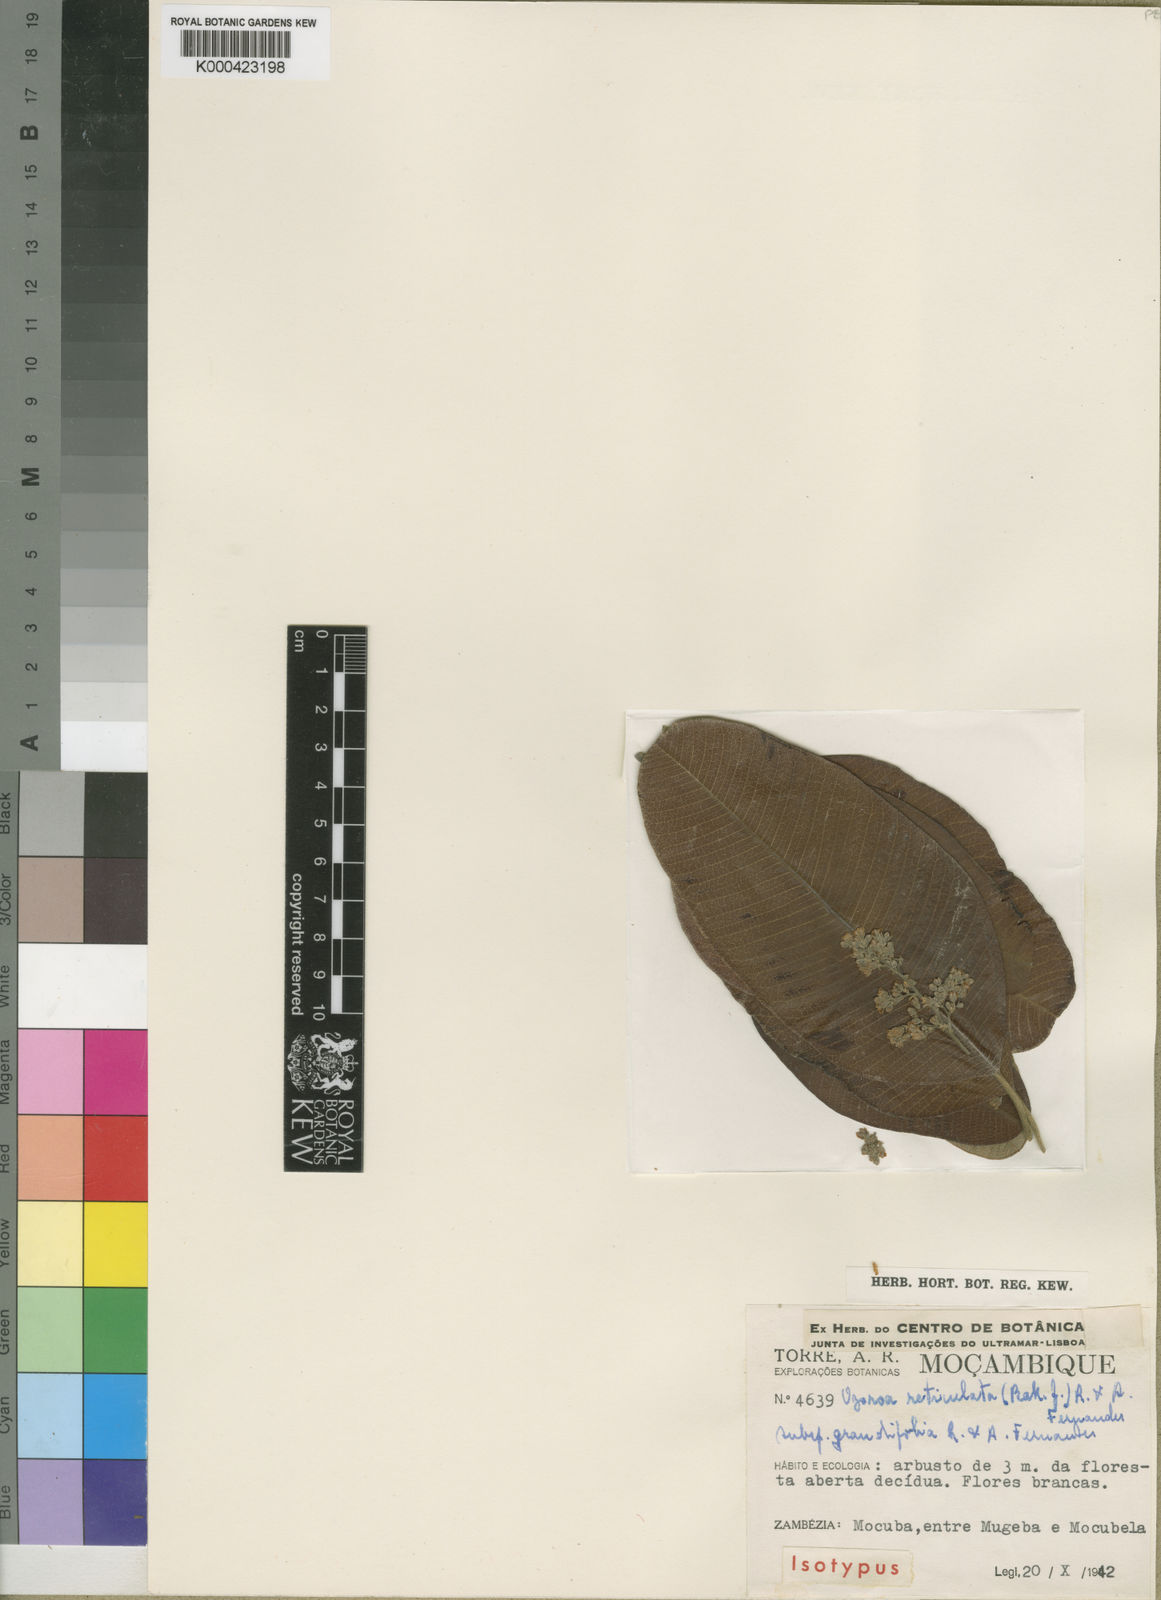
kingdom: Plantae
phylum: Tracheophyta
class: Magnoliopsida
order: Sapindales
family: Anacardiaceae
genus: Ozoroa
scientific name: Ozoroa insignis
